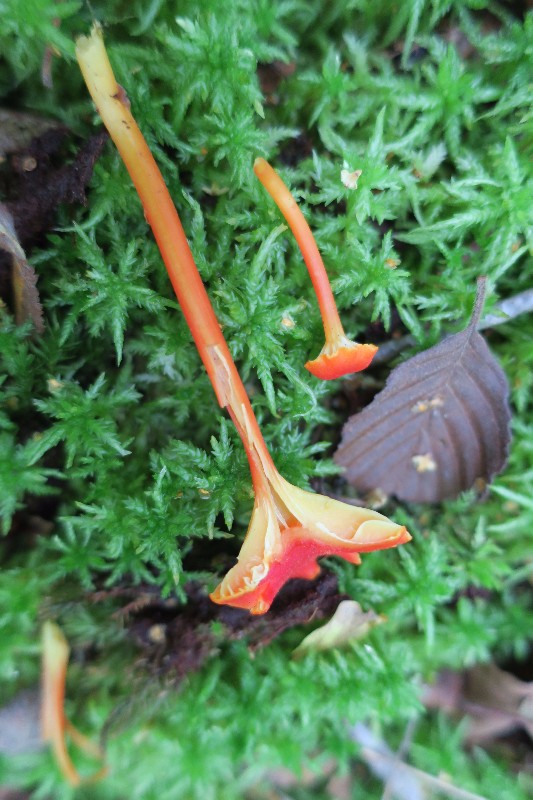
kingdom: Fungi
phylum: Basidiomycota
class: Agaricomycetes
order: Agaricales
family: Hygrophoraceae
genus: Hygrocybe
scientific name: Hygrocybe cantharellus
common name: kantarel-vokshat
